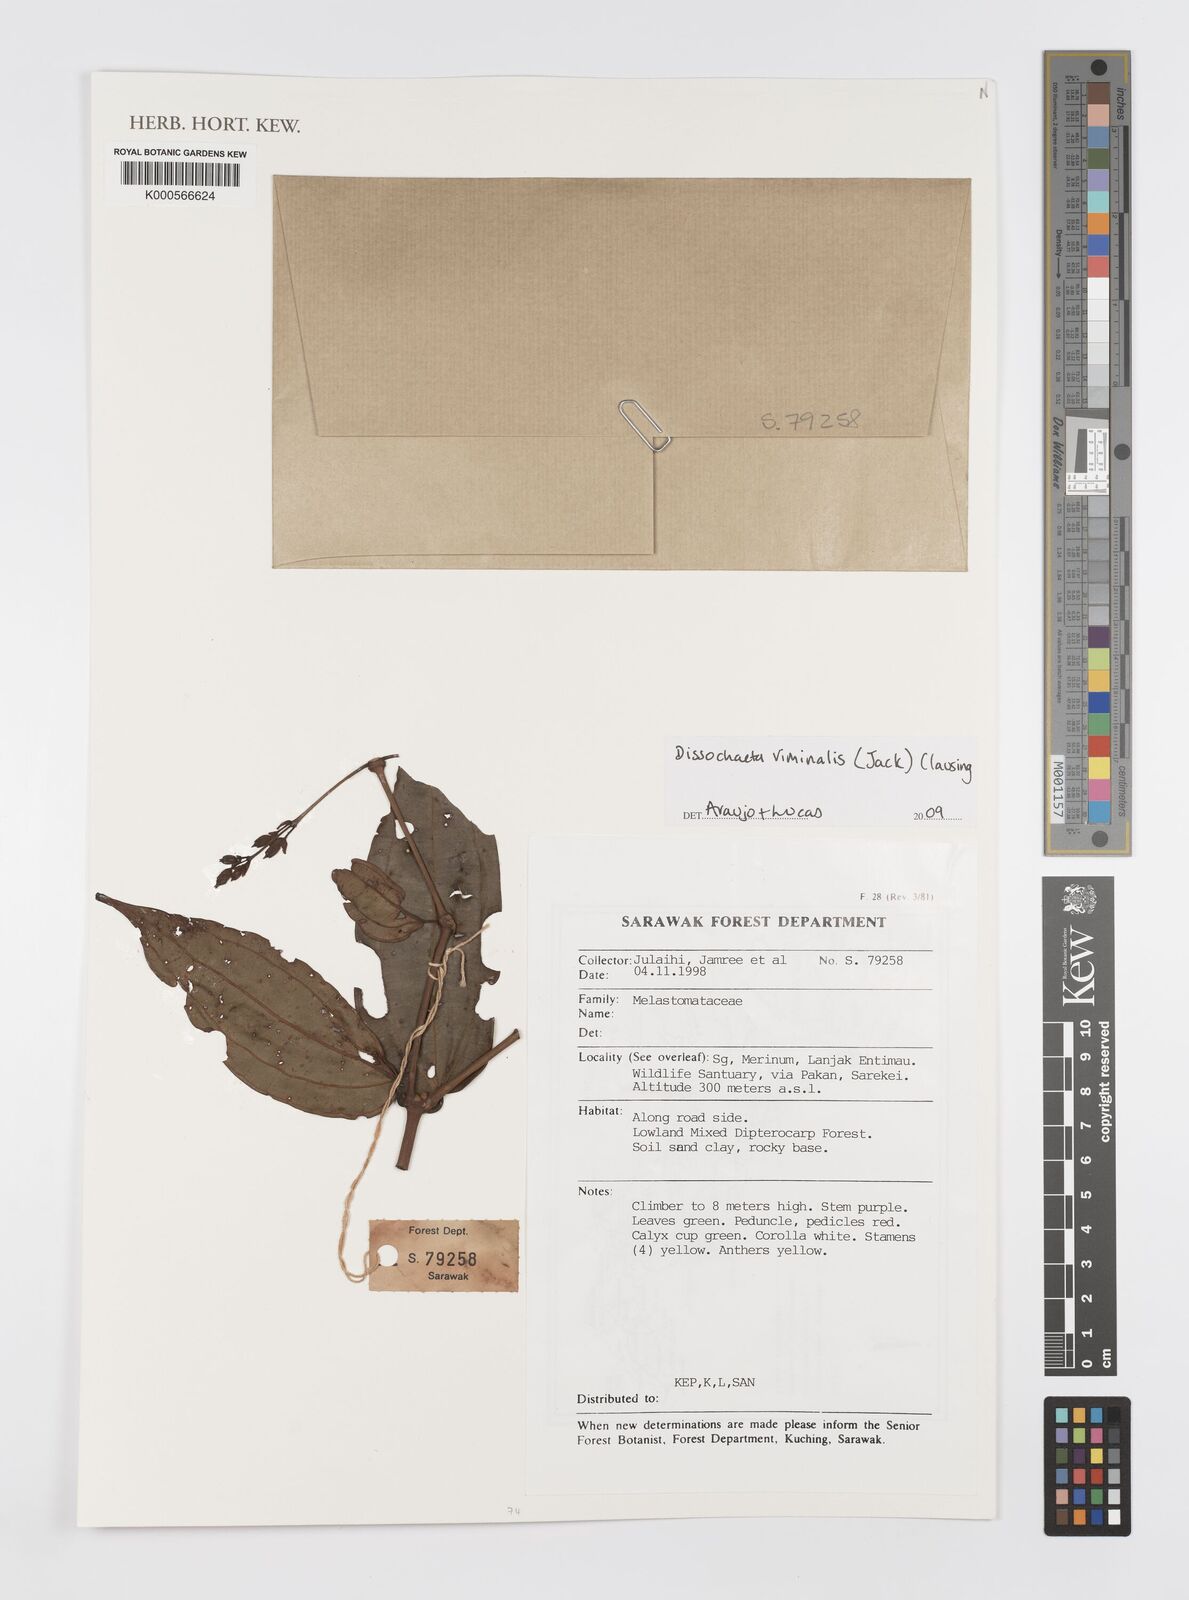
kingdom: Plantae
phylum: Tracheophyta
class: Magnoliopsida
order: Myrtales
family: Melastomataceae
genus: Diplectria
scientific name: Diplectria viminalis
